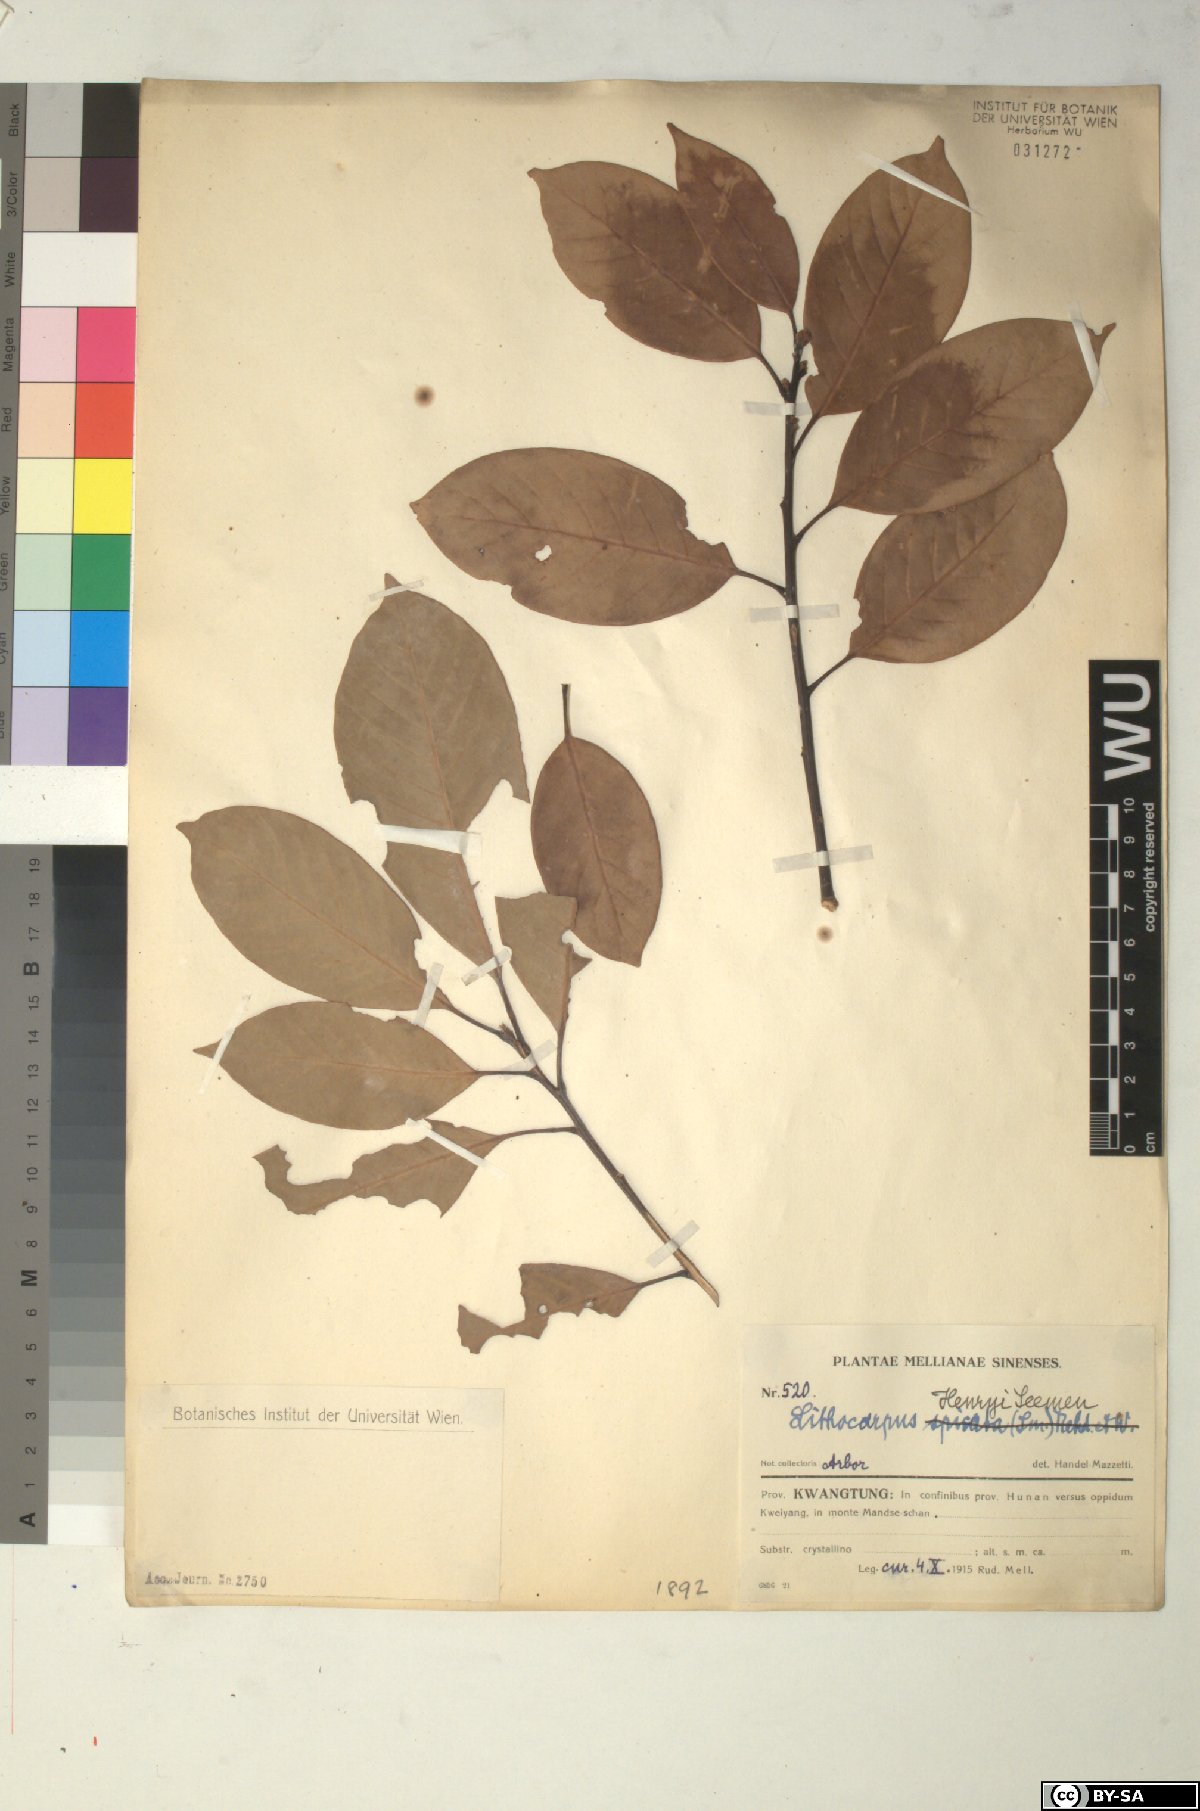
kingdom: Plantae
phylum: Tracheophyta
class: Magnoliopsida
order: Fagales
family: Fagaceae
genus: Lithocarpus
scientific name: Lithocarpus henryi
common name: Henry tanbark oak
